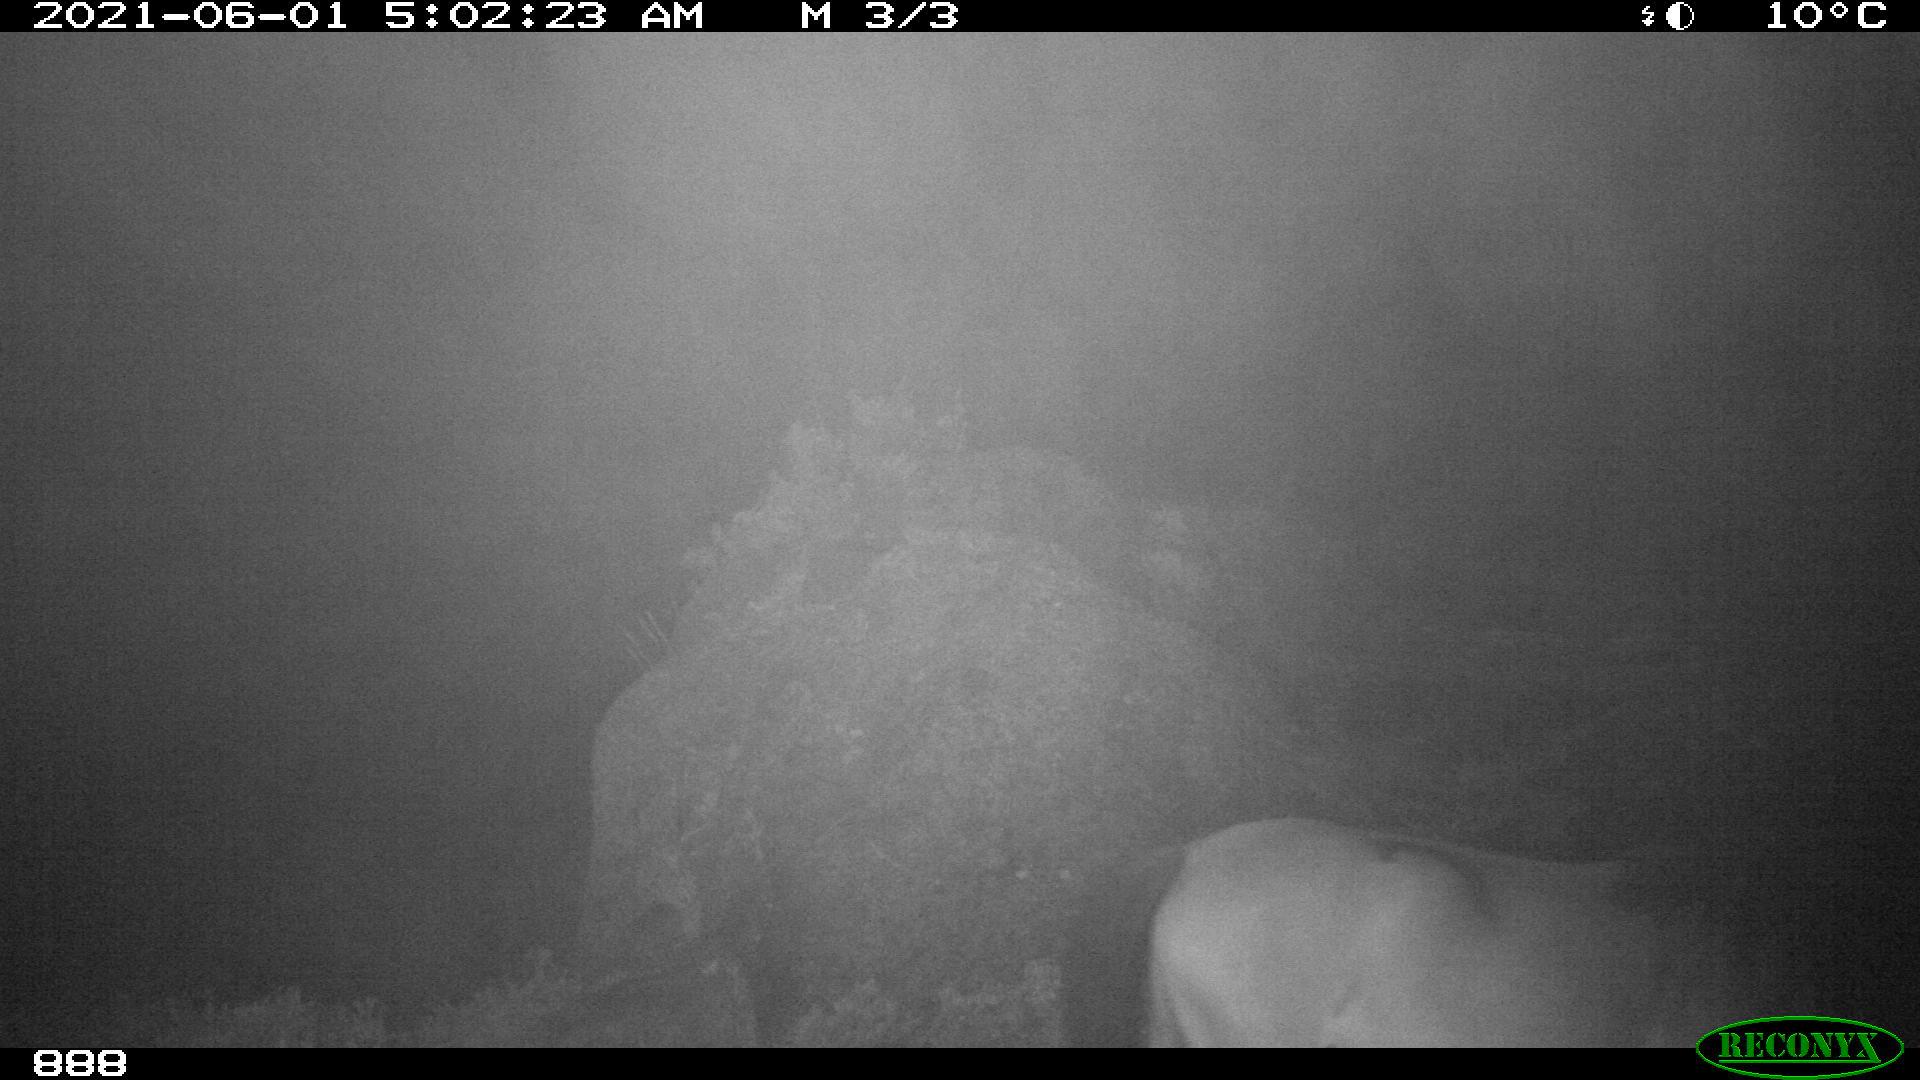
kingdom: Animalia
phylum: Chordata
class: Mammalia
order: Perissodactyla
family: Equidae
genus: Equus
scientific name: Equus caballus
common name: Horse
